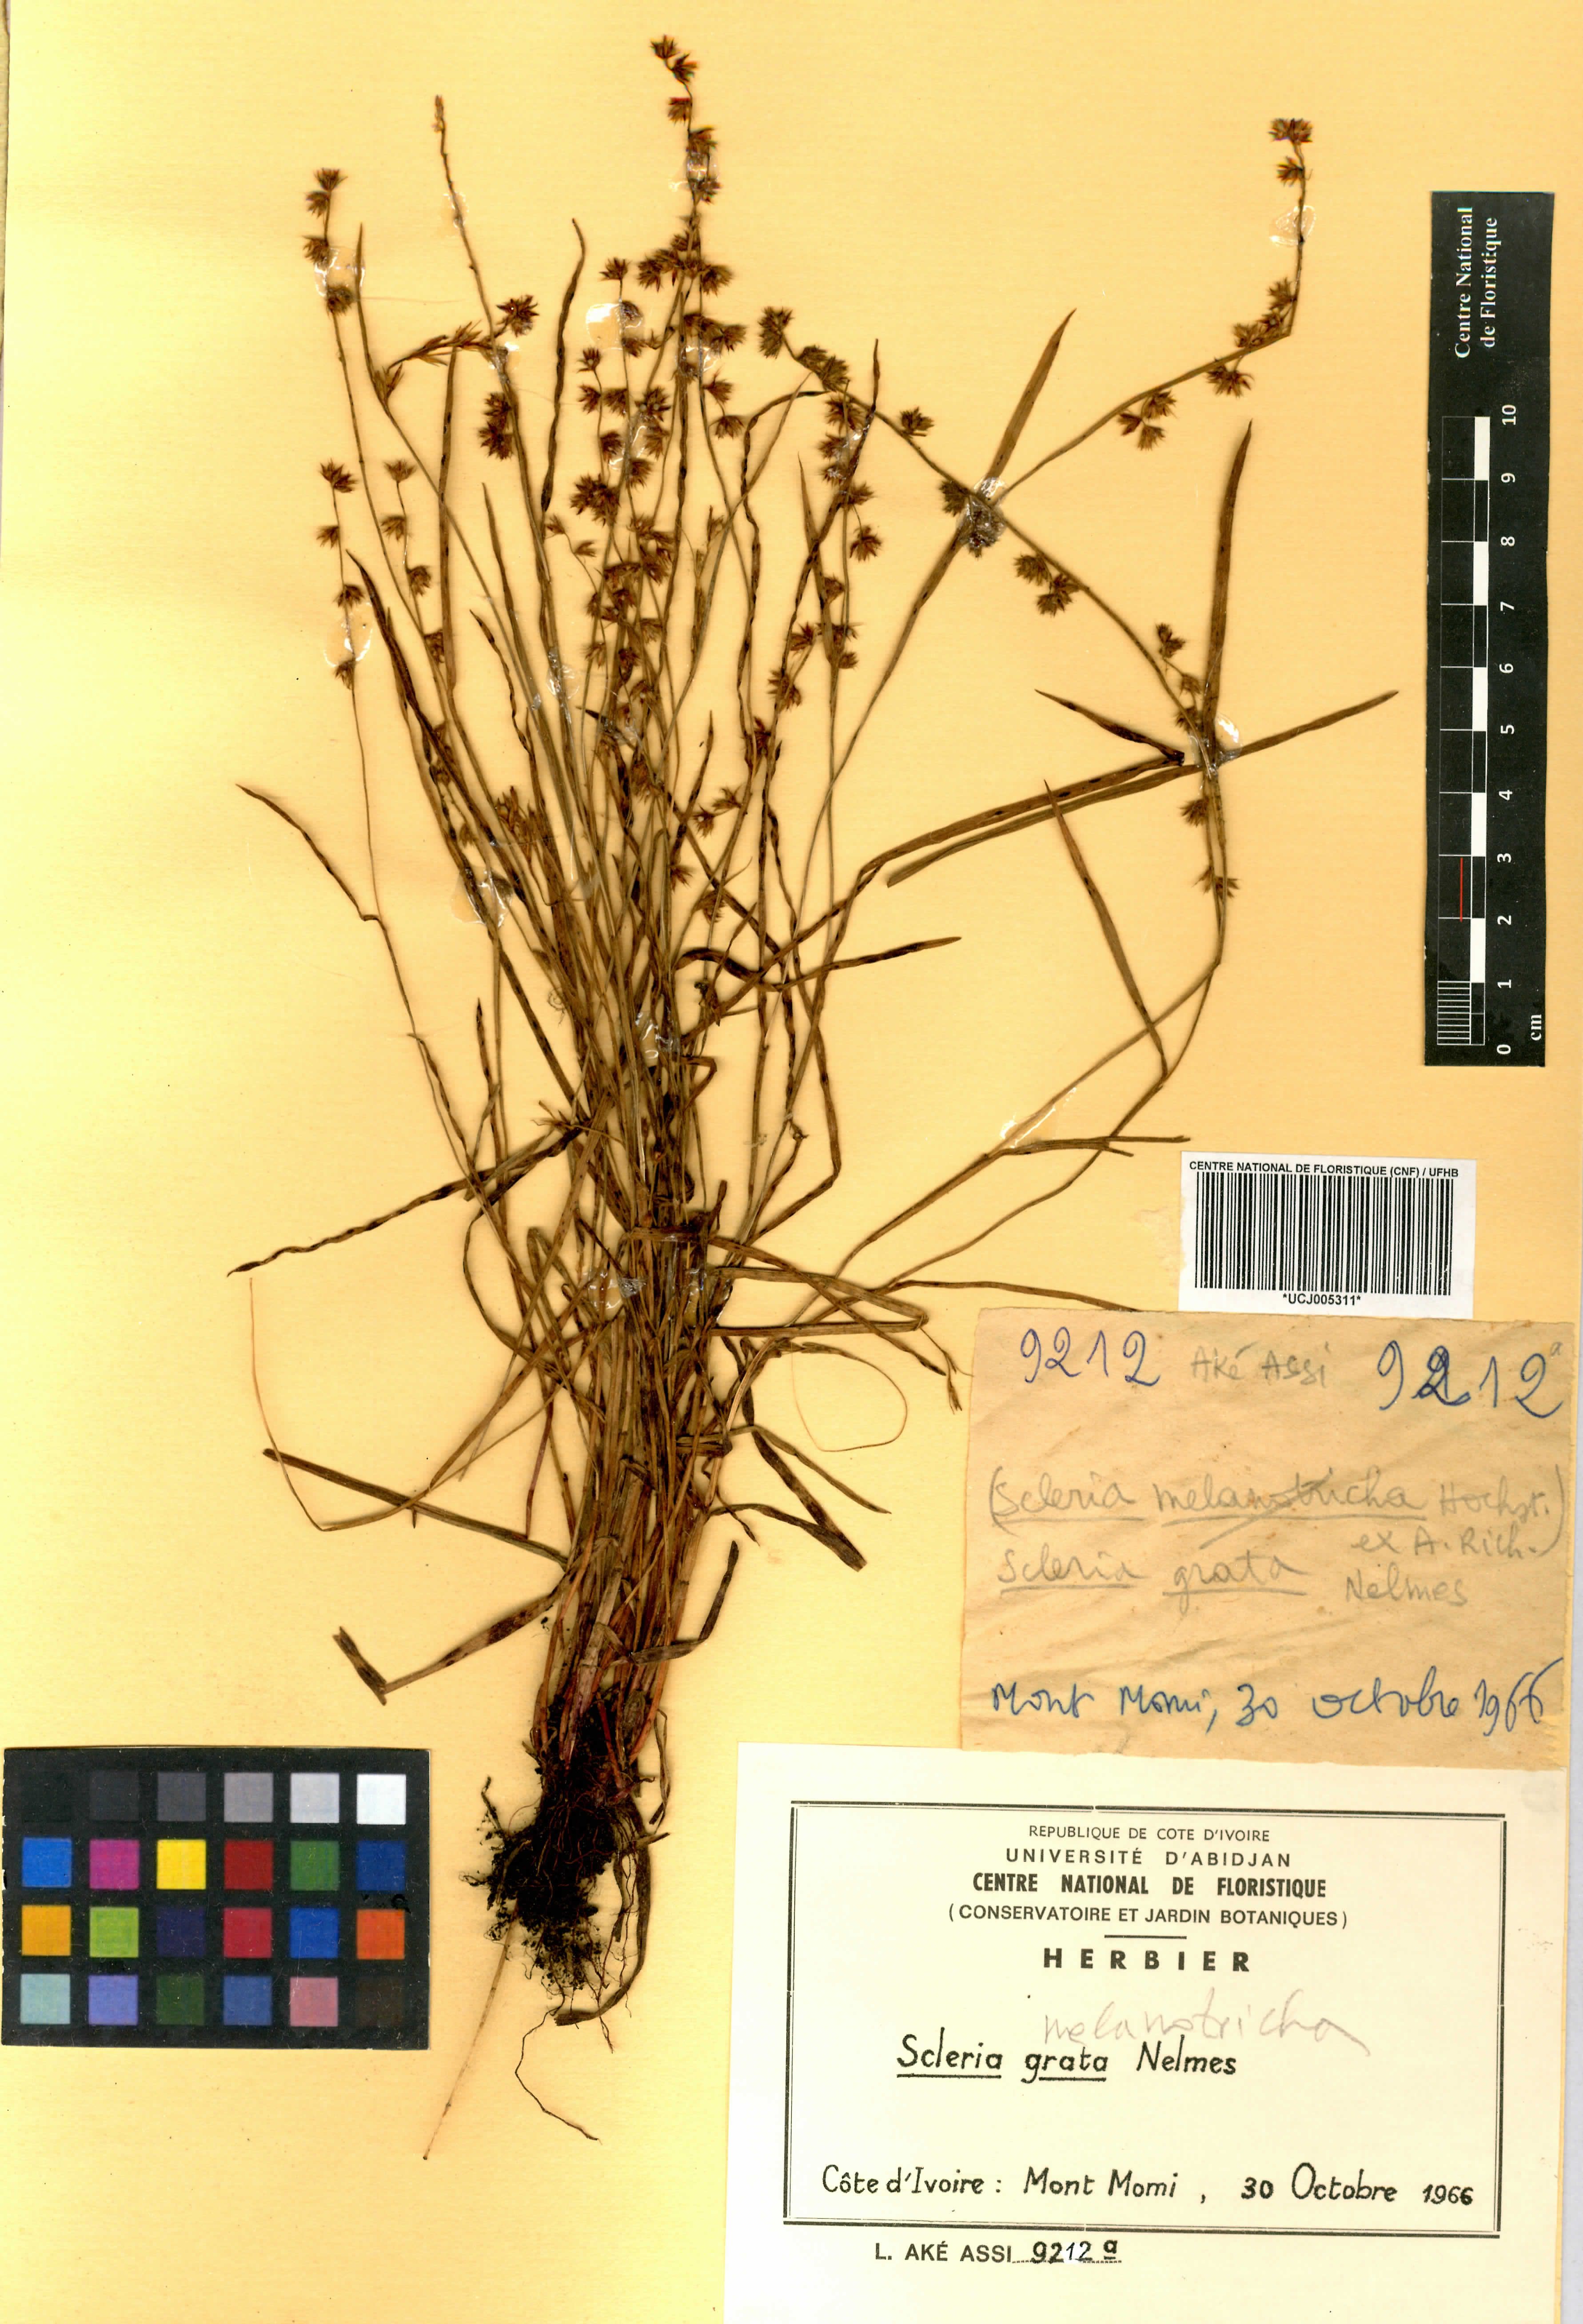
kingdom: Plantae
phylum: Tracheophyta
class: Liliopsida
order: Poales
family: Cyperaceae
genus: Scleria
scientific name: Scleria melanotricha
